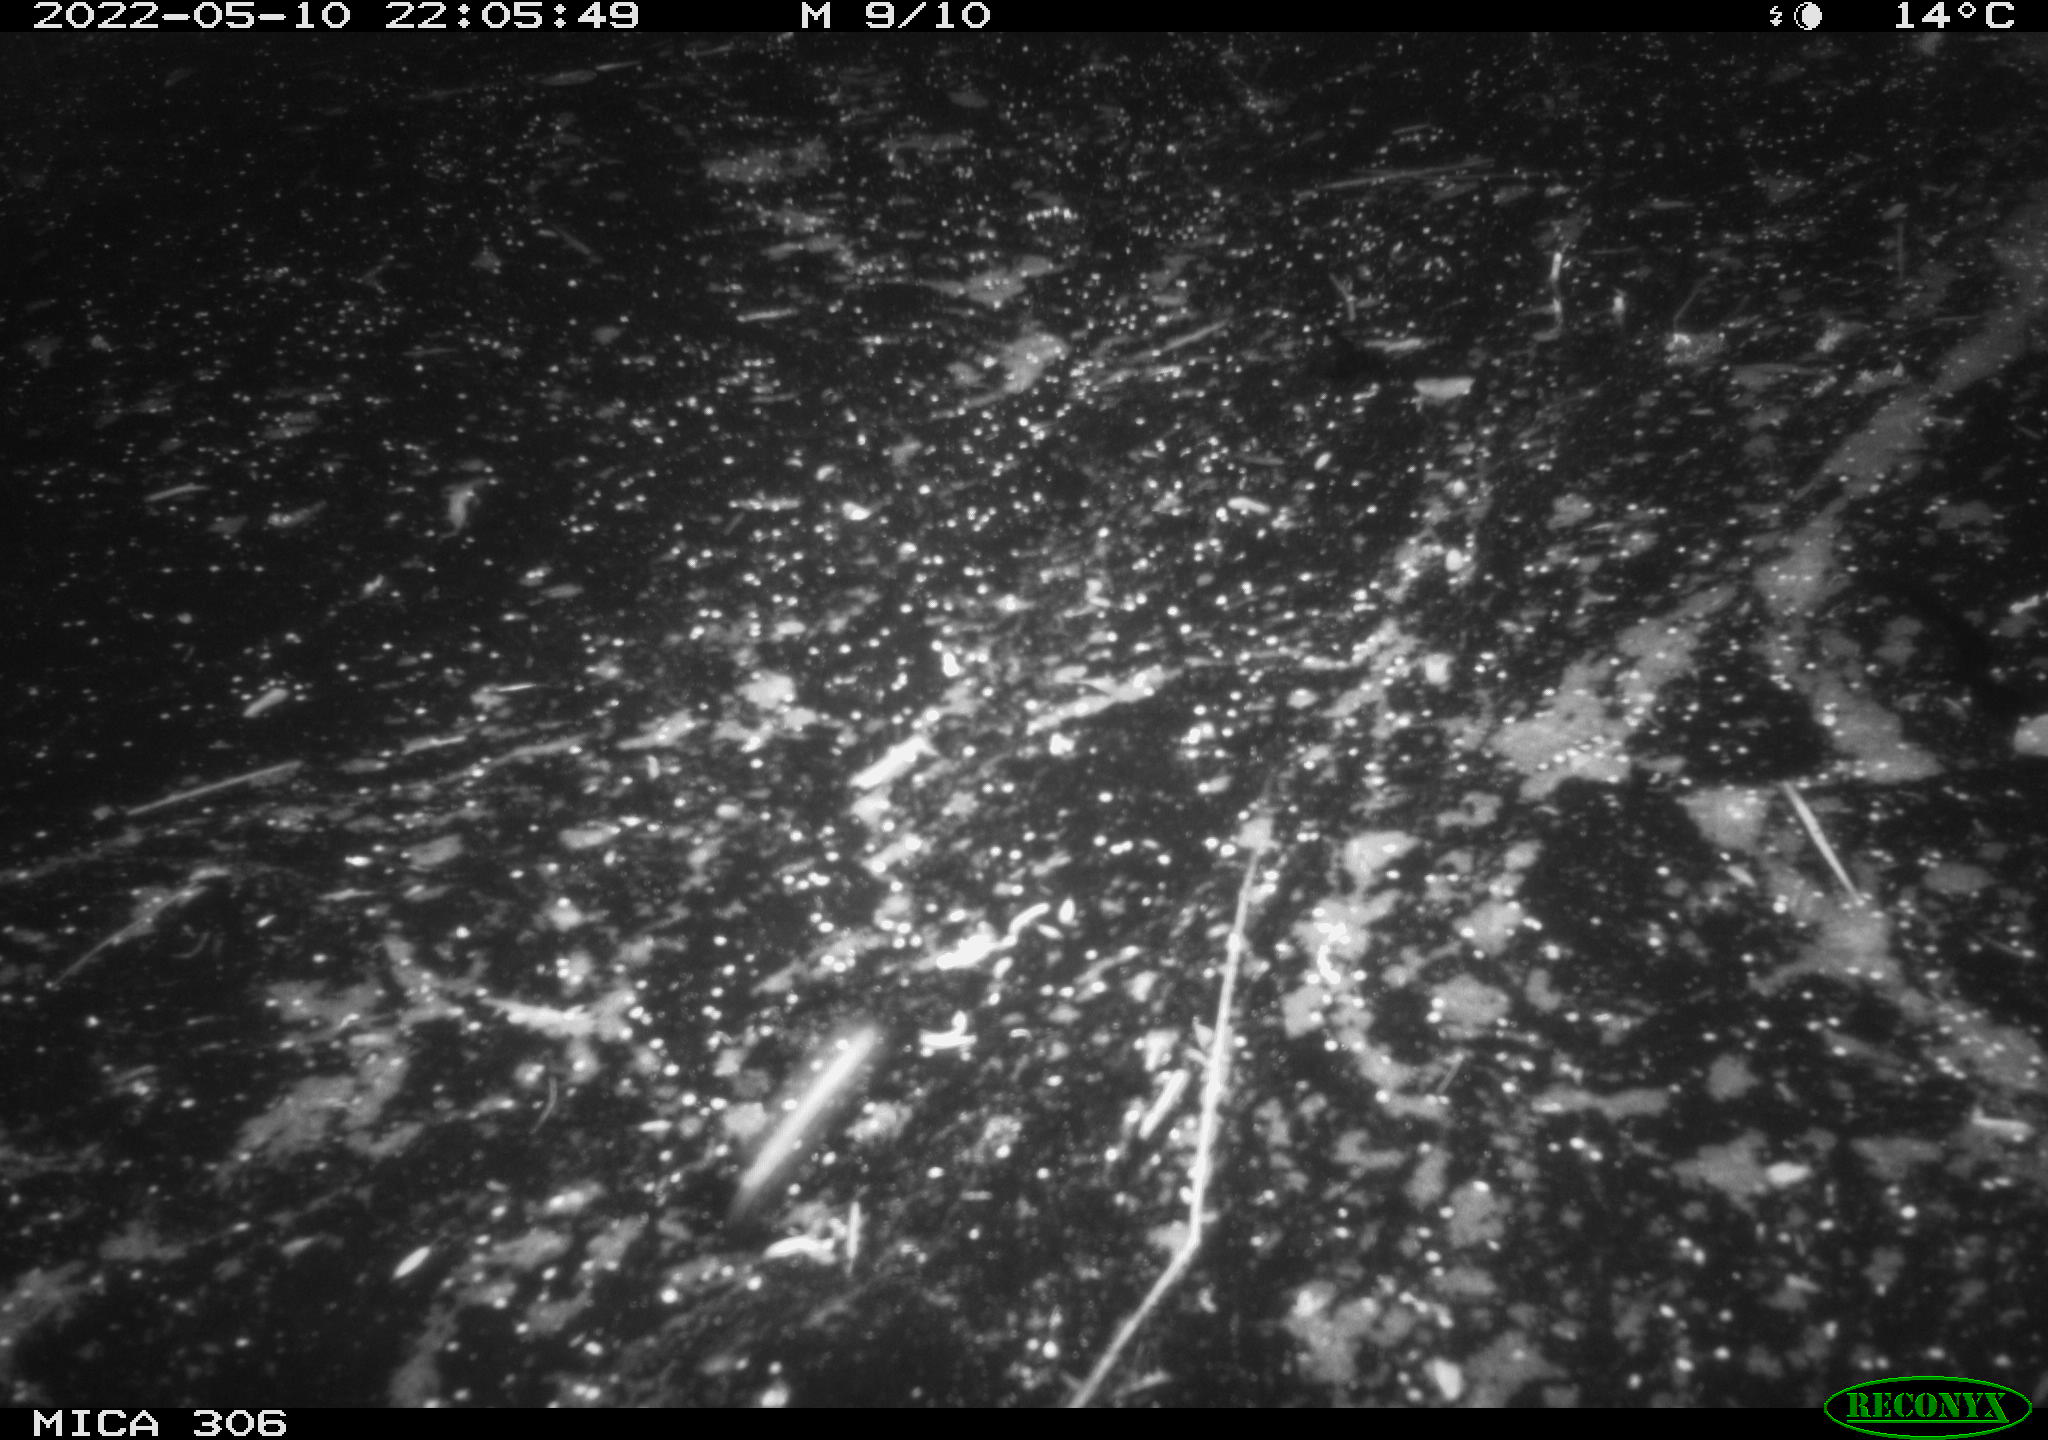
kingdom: Animalia
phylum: Chordata
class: Mammalia
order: Rodentia
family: Cricetidae
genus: Ondatra
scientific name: Ondatra zibethicus
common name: Muskrat
